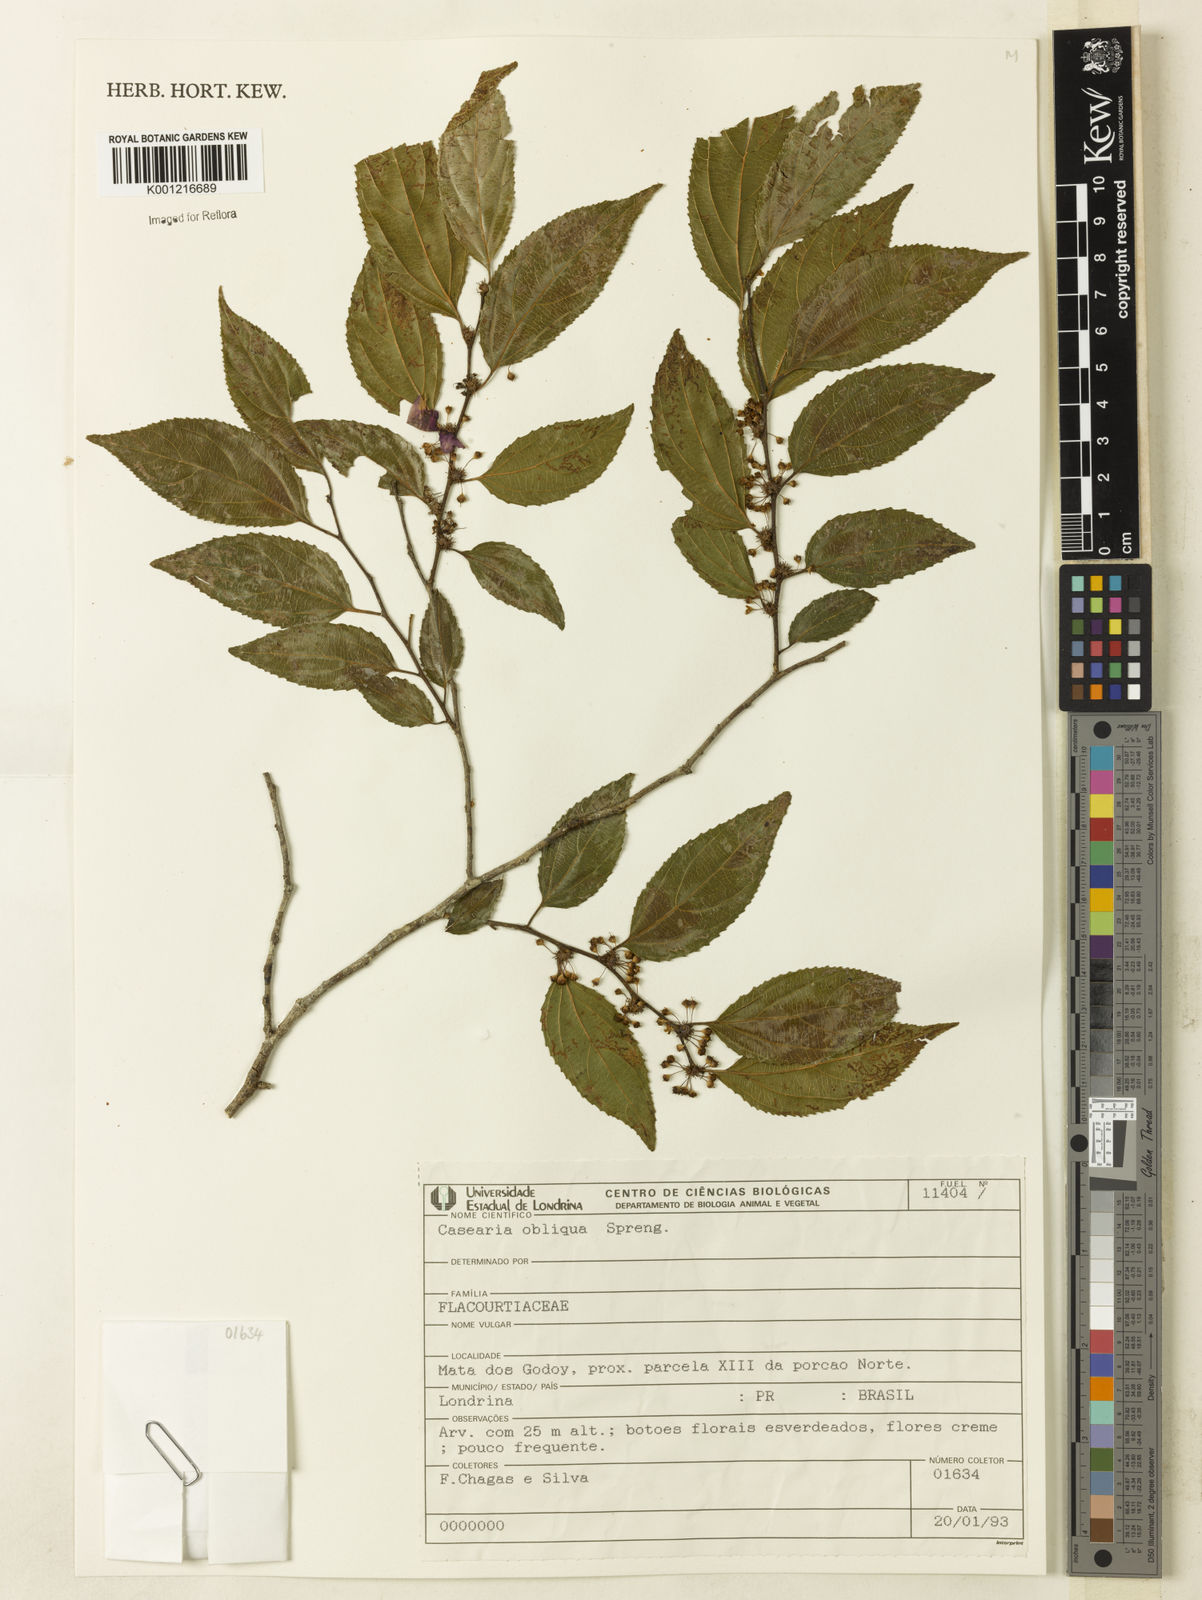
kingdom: Plantae
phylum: Tracheophyta
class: Magnoliopsida
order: Malpighiales
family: Salicaceae
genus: Casearia
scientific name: Casearia obliqua
